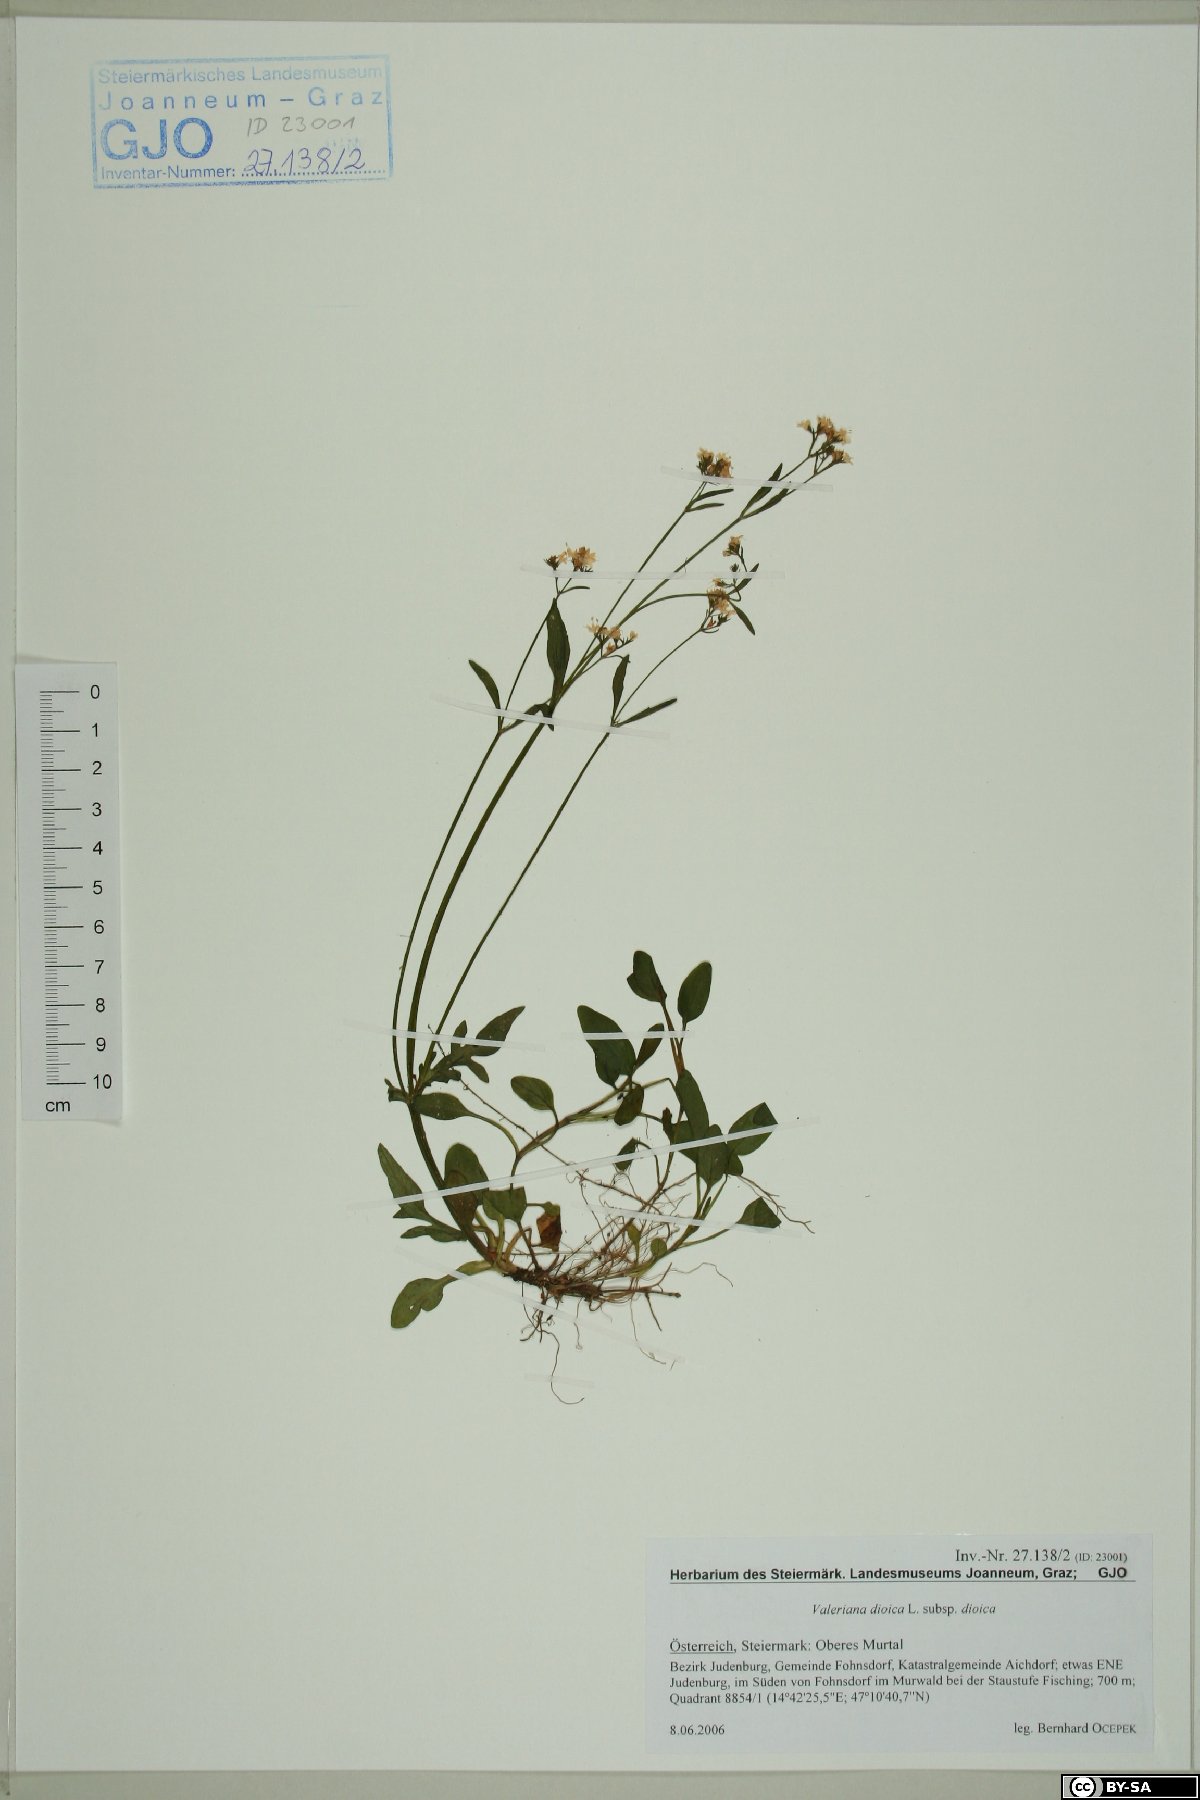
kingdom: Plantae
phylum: Tracheophyta
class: Magnoliopsida
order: Dipsacales
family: Caprifoliaceae
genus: Valeriana
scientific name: Valeriana dioica
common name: Marsh valerian
